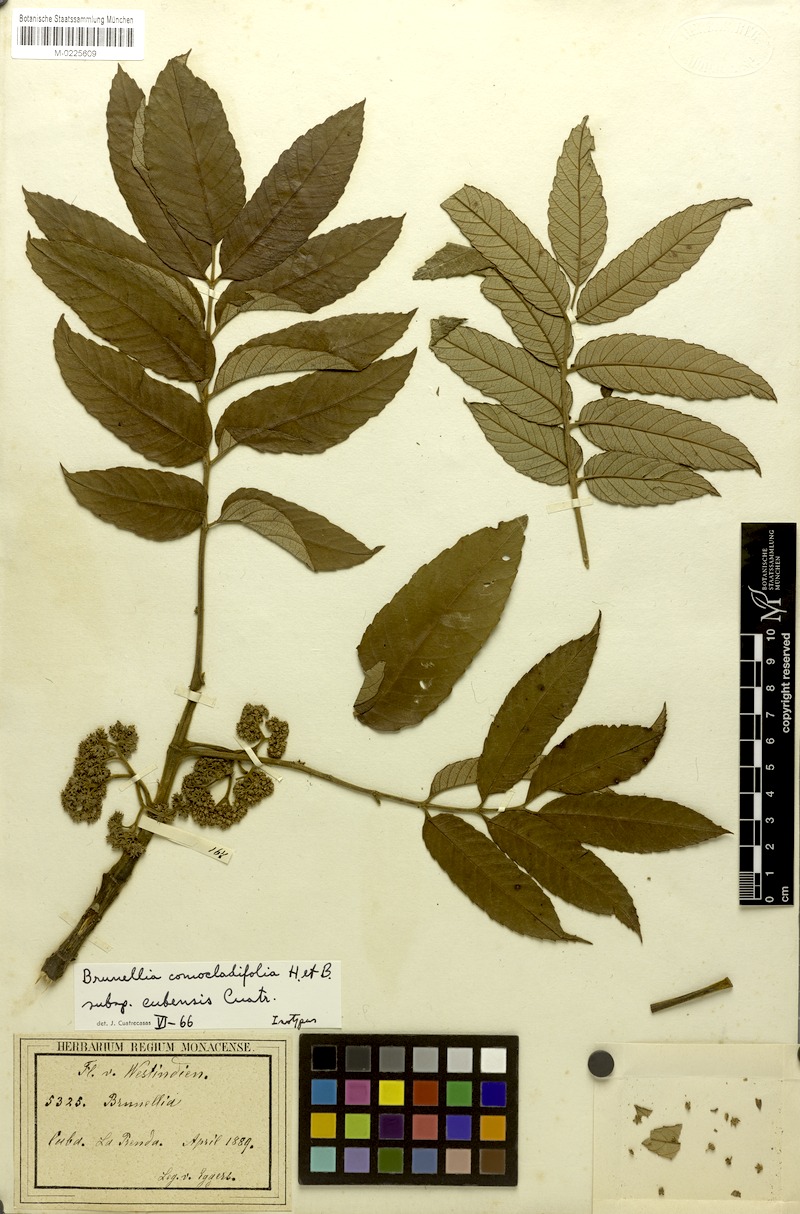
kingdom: Plantae
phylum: Tracheophyta
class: Magnoliopsida
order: Oxalidales
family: Brunelliaceae
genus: Brunellia
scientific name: Brunellia comocladifolia
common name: West indian sumac
